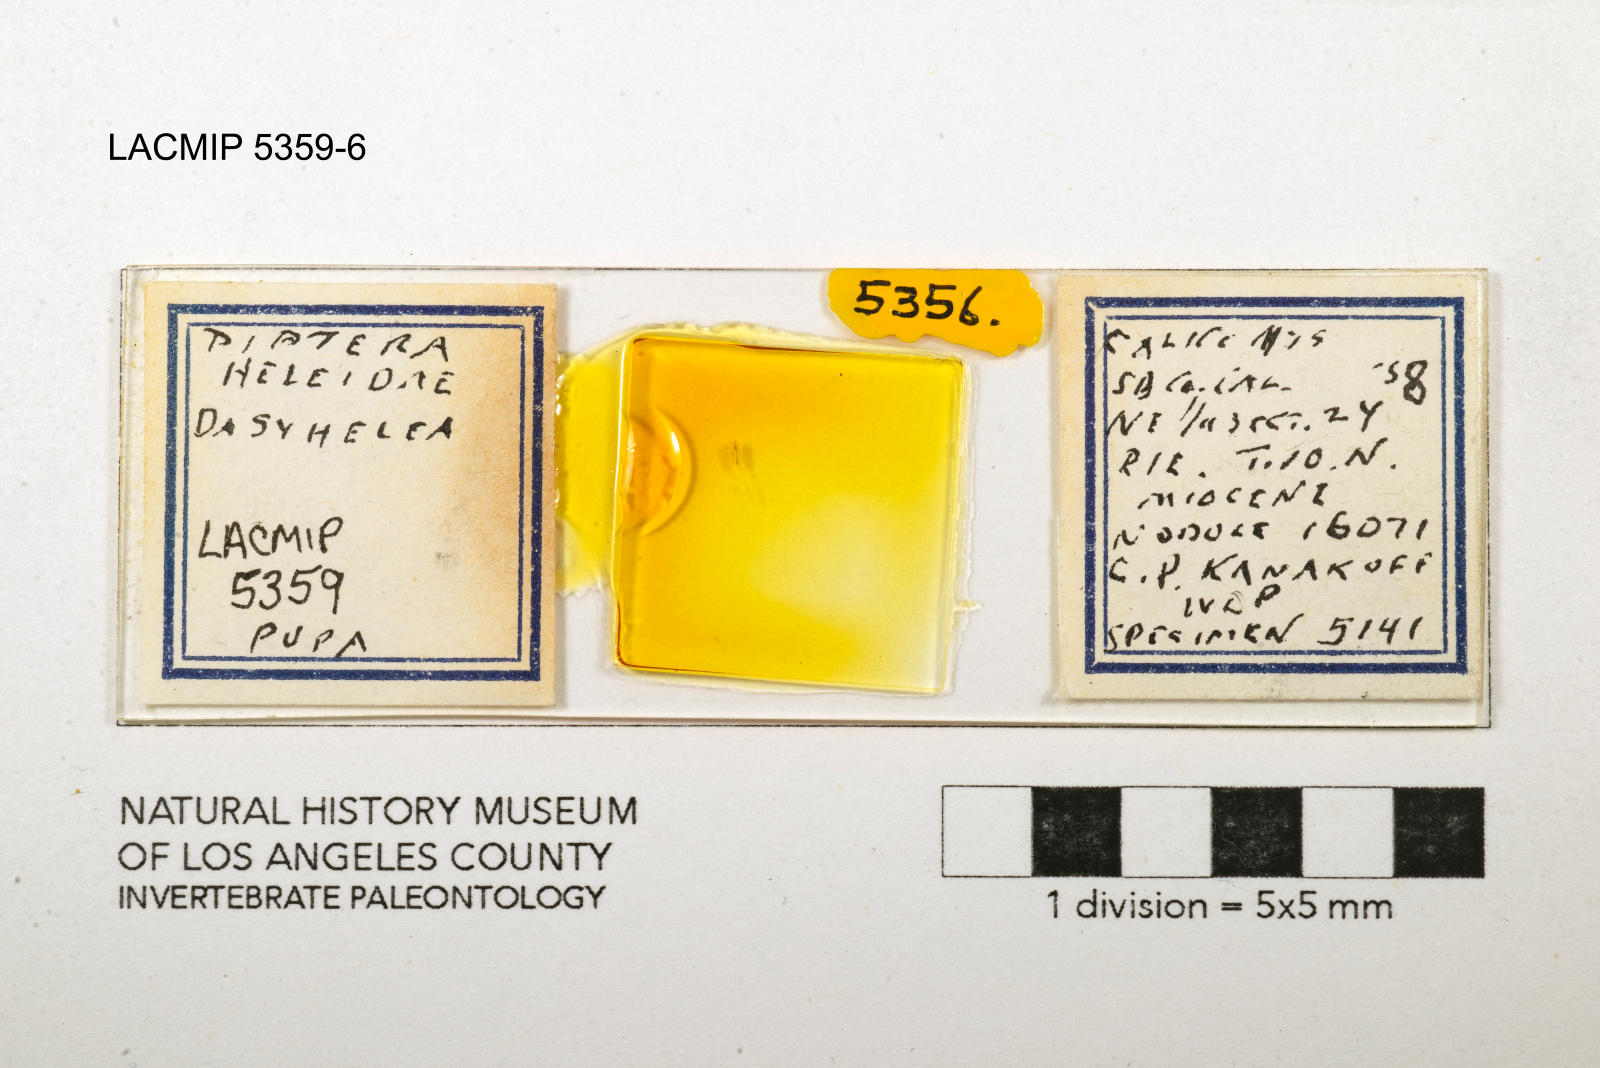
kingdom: Animalia
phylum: Arthropoda
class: Insecta
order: Diptera
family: Ceratopogonidae
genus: Dasyhelea
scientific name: Dasyhelea kanakoffi
